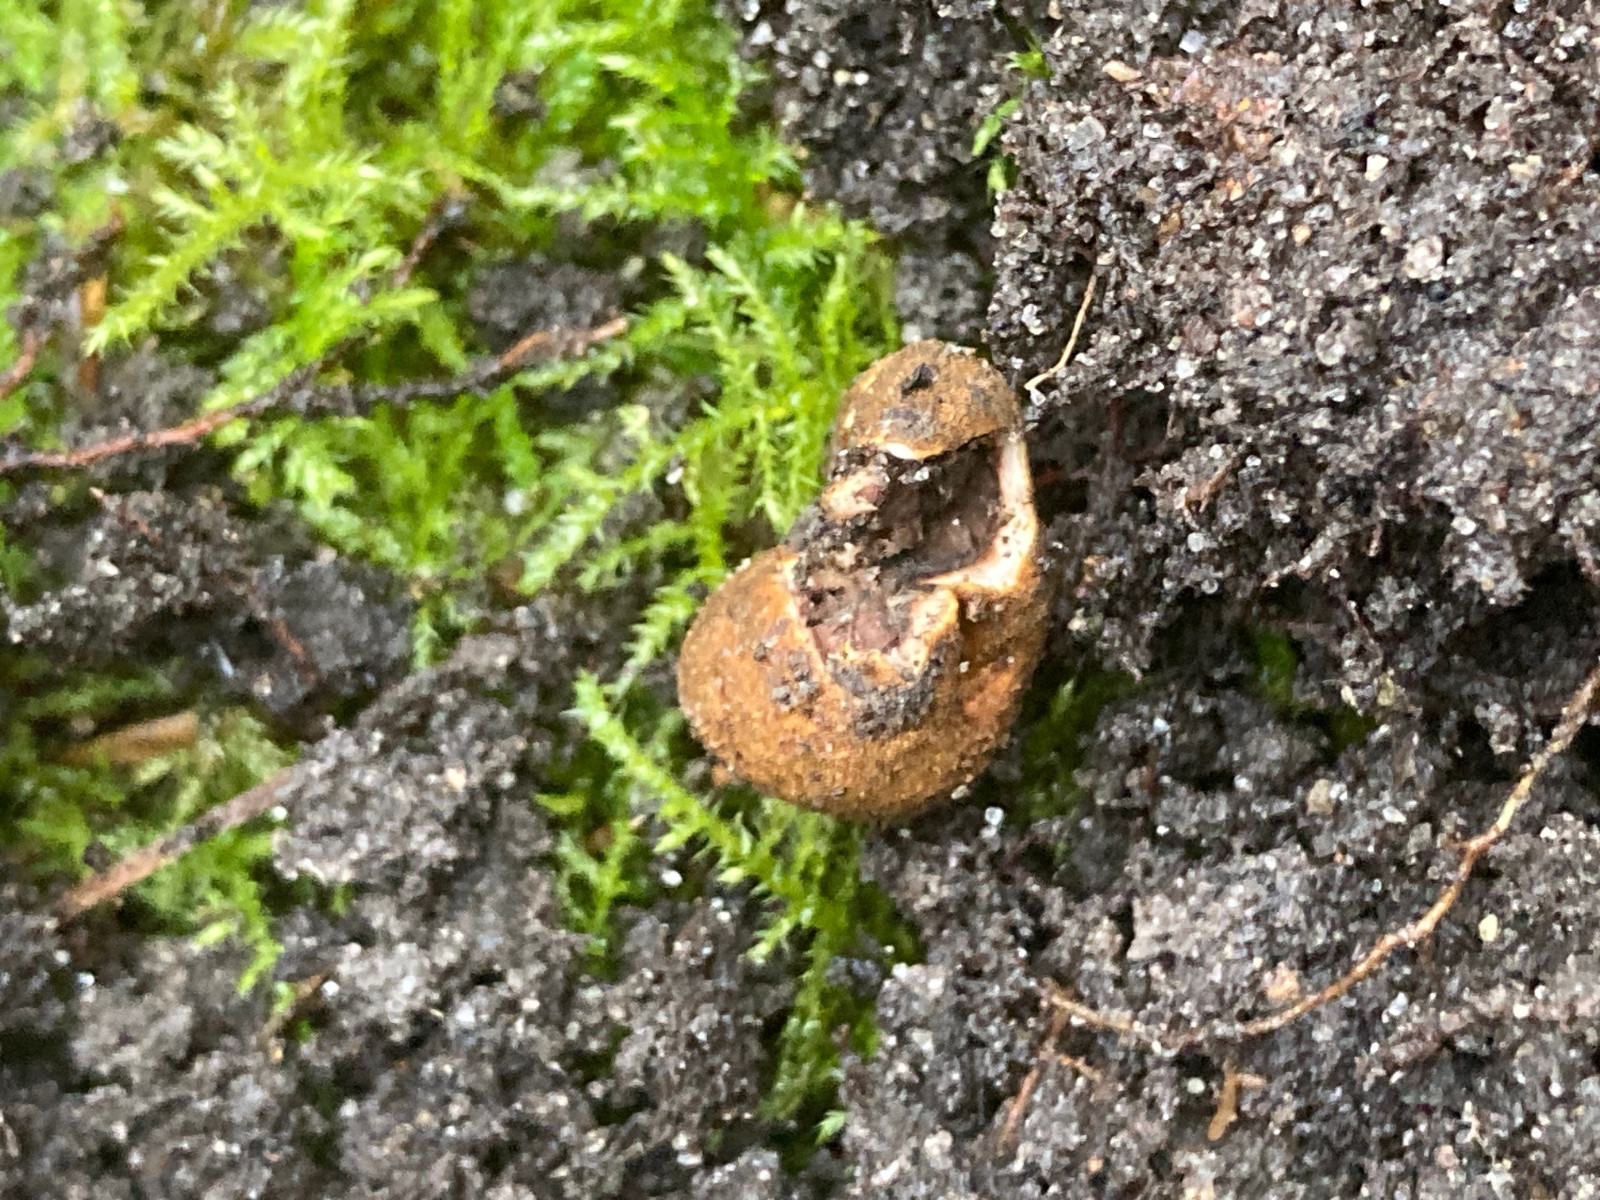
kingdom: Fungi
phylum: Ascomycota
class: Eurotiomycetes
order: Eurotiales
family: Elaphomycetaceae
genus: Elaphomyces
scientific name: Elaphomyces granulatus
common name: grynet hjortetrøffel
